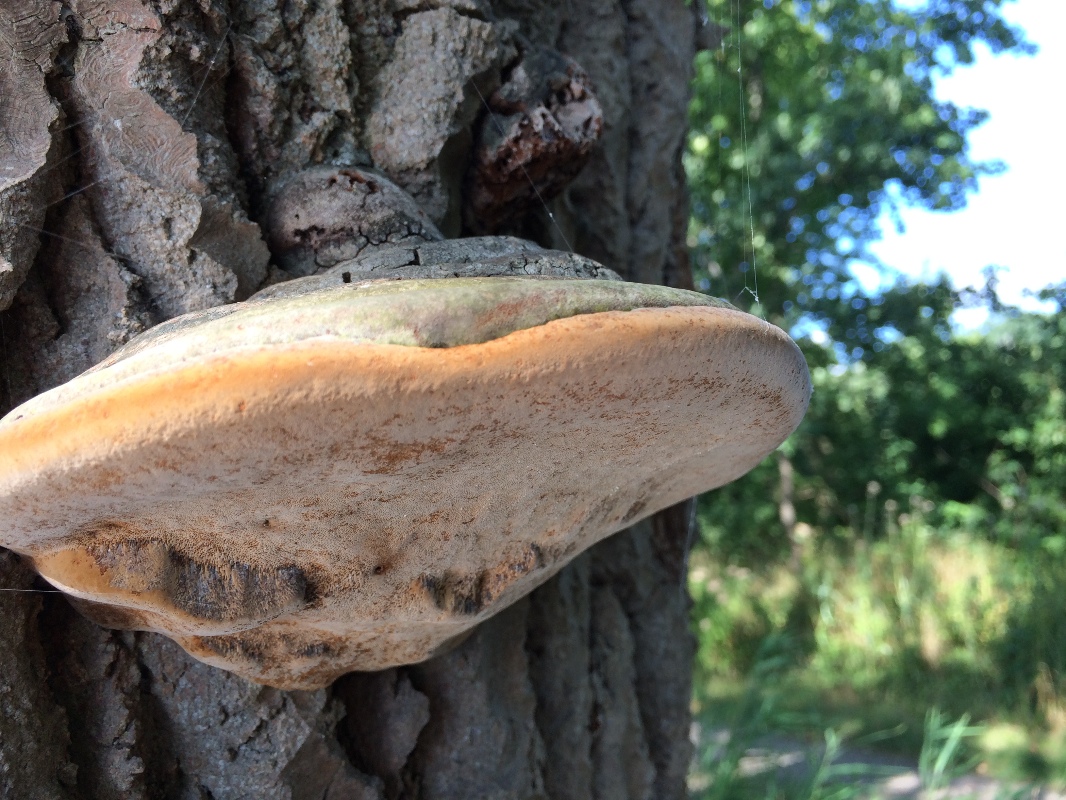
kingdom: Fungi
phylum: Basidiomycota
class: Agaricomycetes
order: Hymenochaetales
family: Hymenochaetaceae
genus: Phellinus
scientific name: Phellinus populicola
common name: poppel-ildporesvamp
